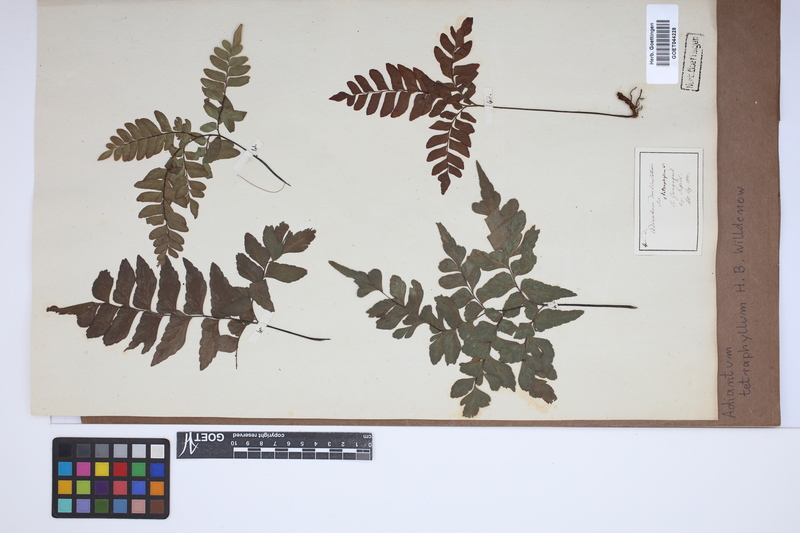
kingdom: Plantae
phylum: Tracheophyta
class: Polypodiopsida
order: Polypodiales
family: Pteridaceae
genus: Adiantum
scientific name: Adiantum tetraphyllum
